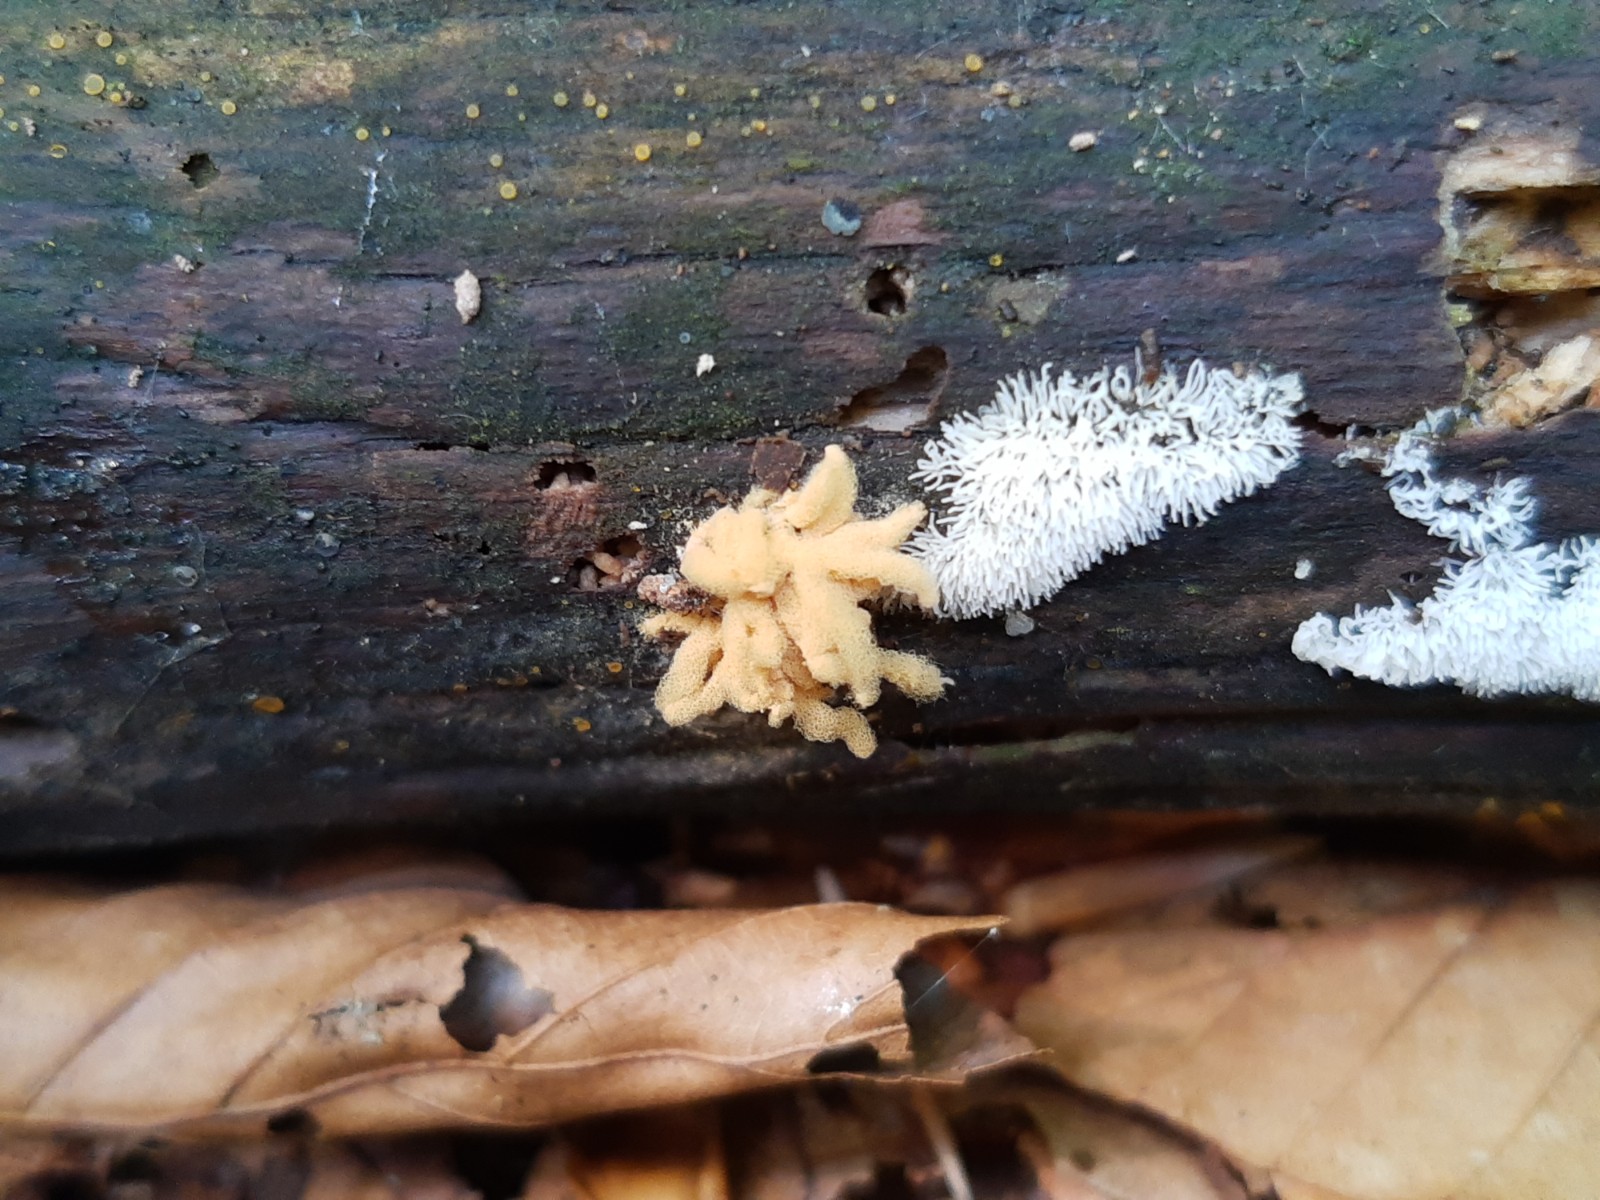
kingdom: Protozoa
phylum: Mycetozoa
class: Myxomycetes
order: Trichiales
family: Arcyriaceae
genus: Arcyria
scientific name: Arcyria obvelata
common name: okkergul skålsvøb
